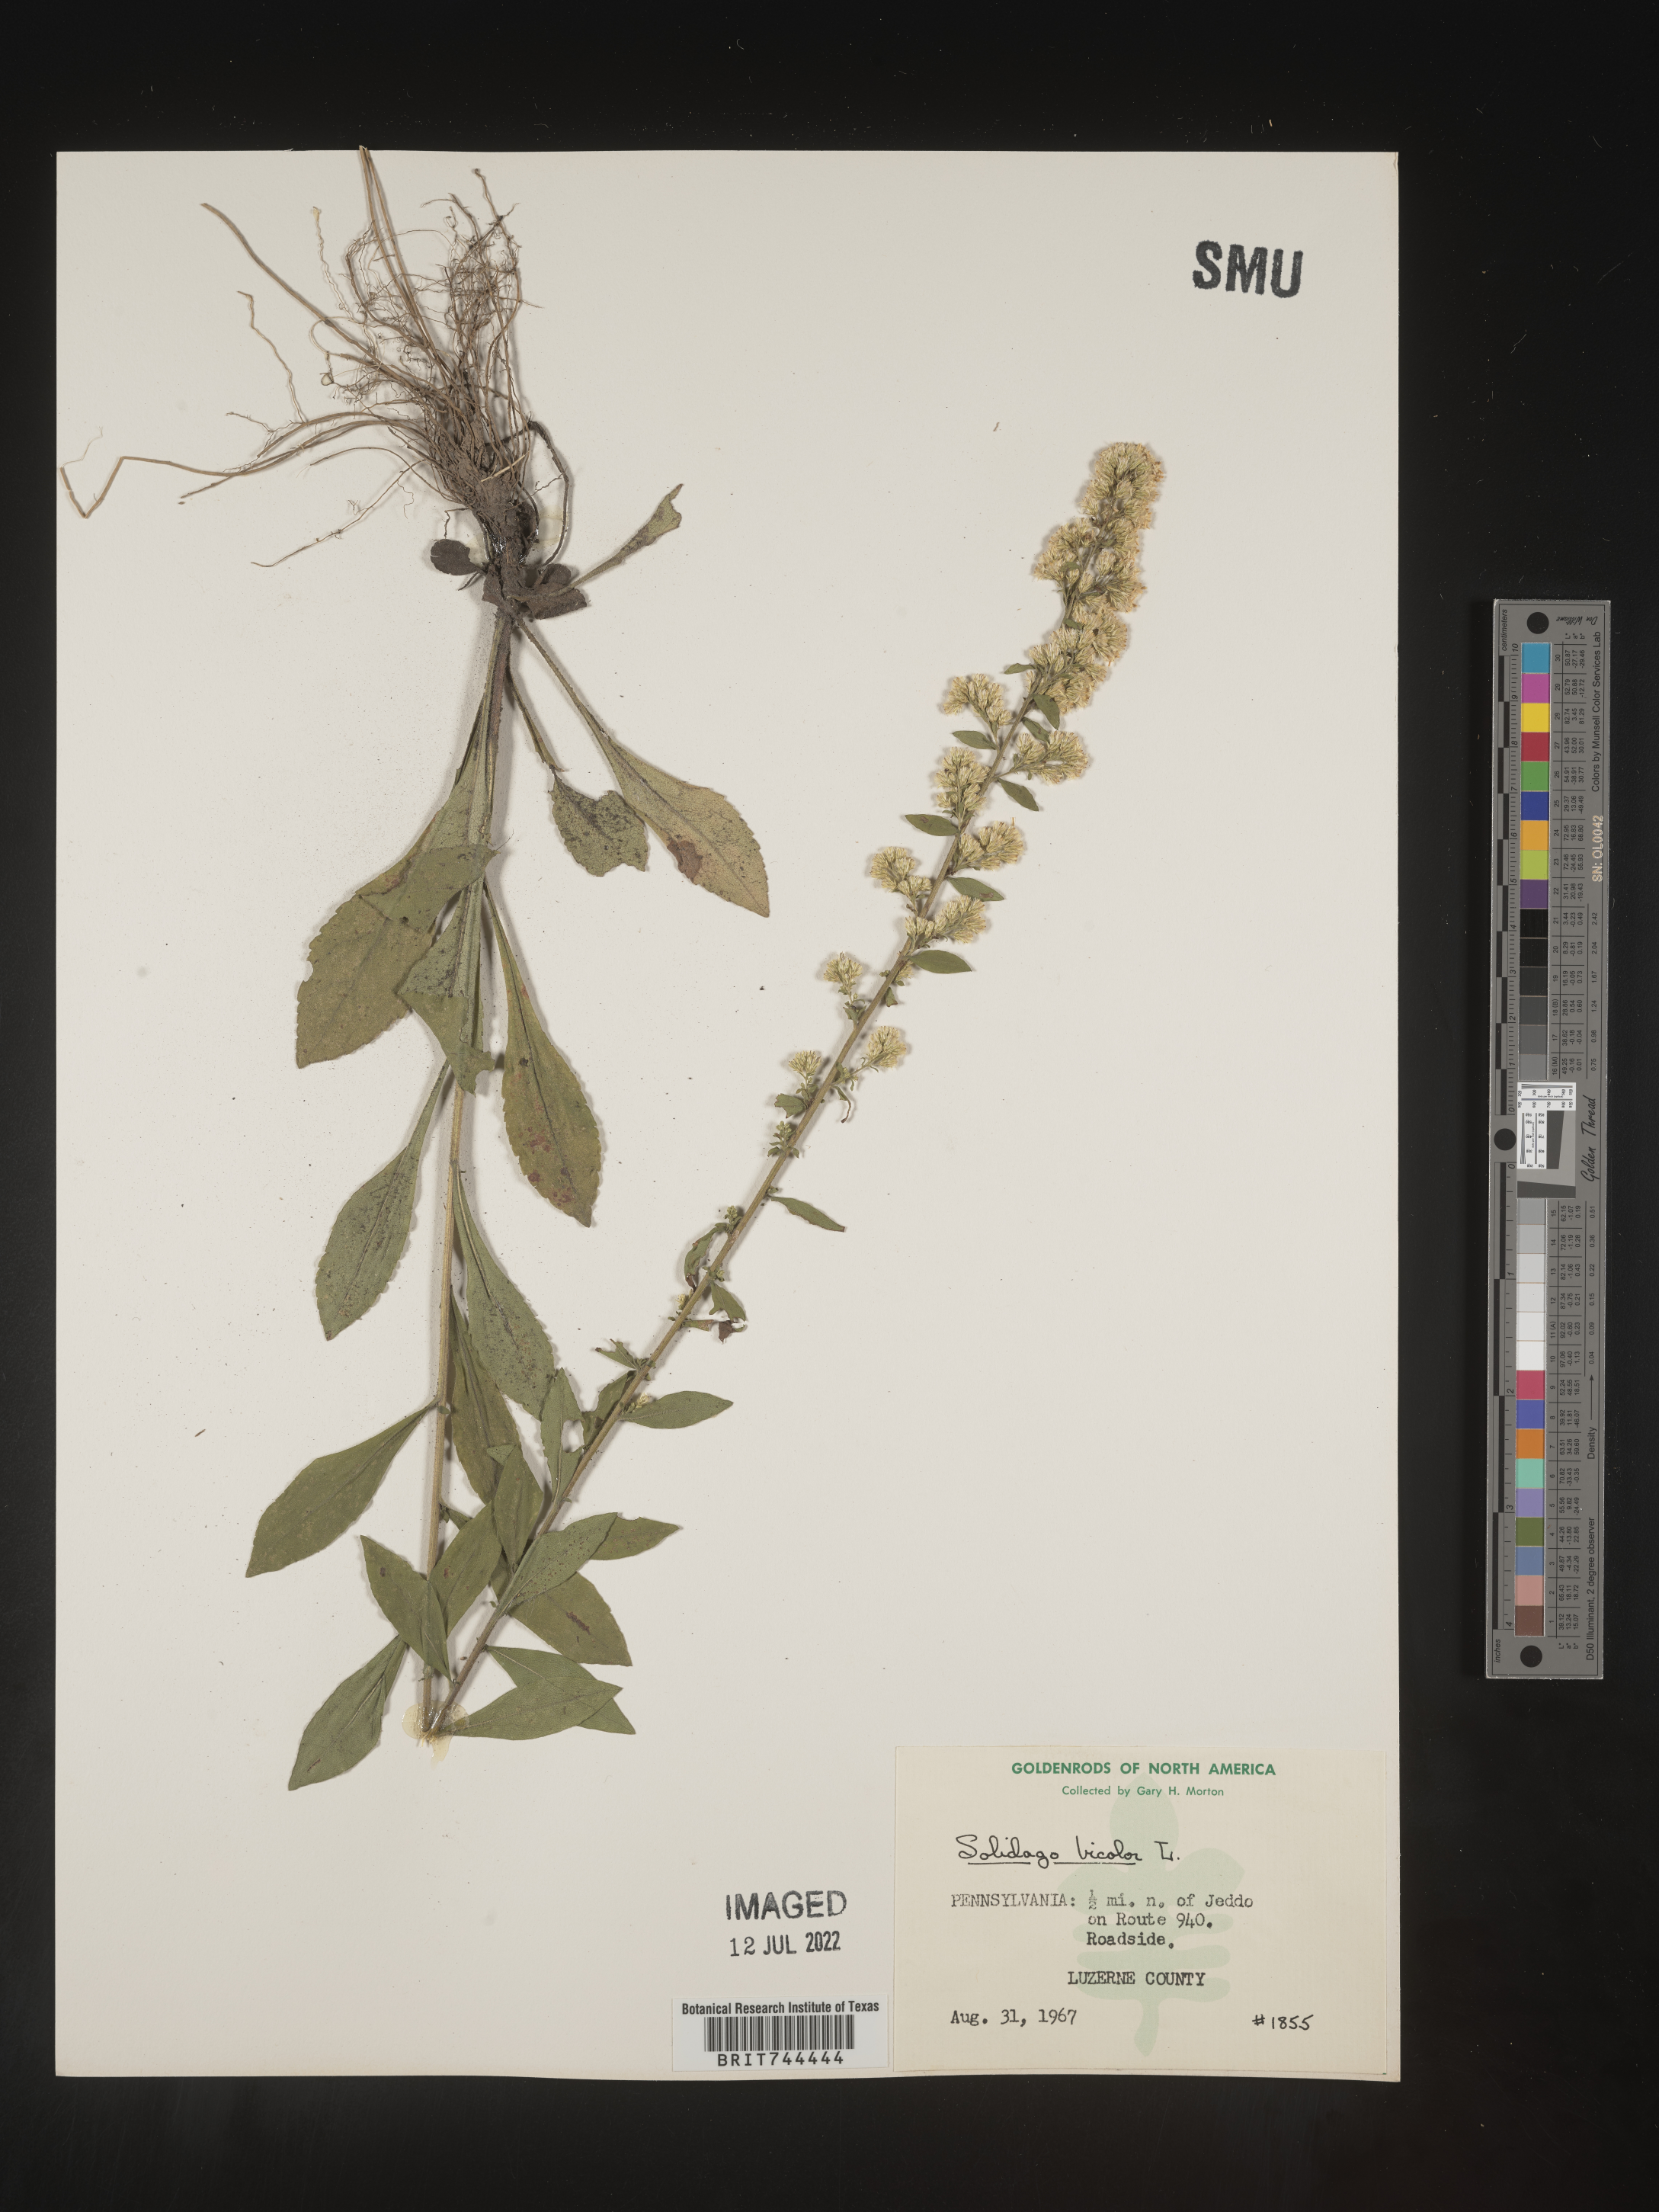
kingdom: Plantae
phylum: Tracheophyta
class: Magnoliopsida
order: Asterales
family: Asteraceae
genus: Solidago
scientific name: Solidago bicolor
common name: Silverrod
